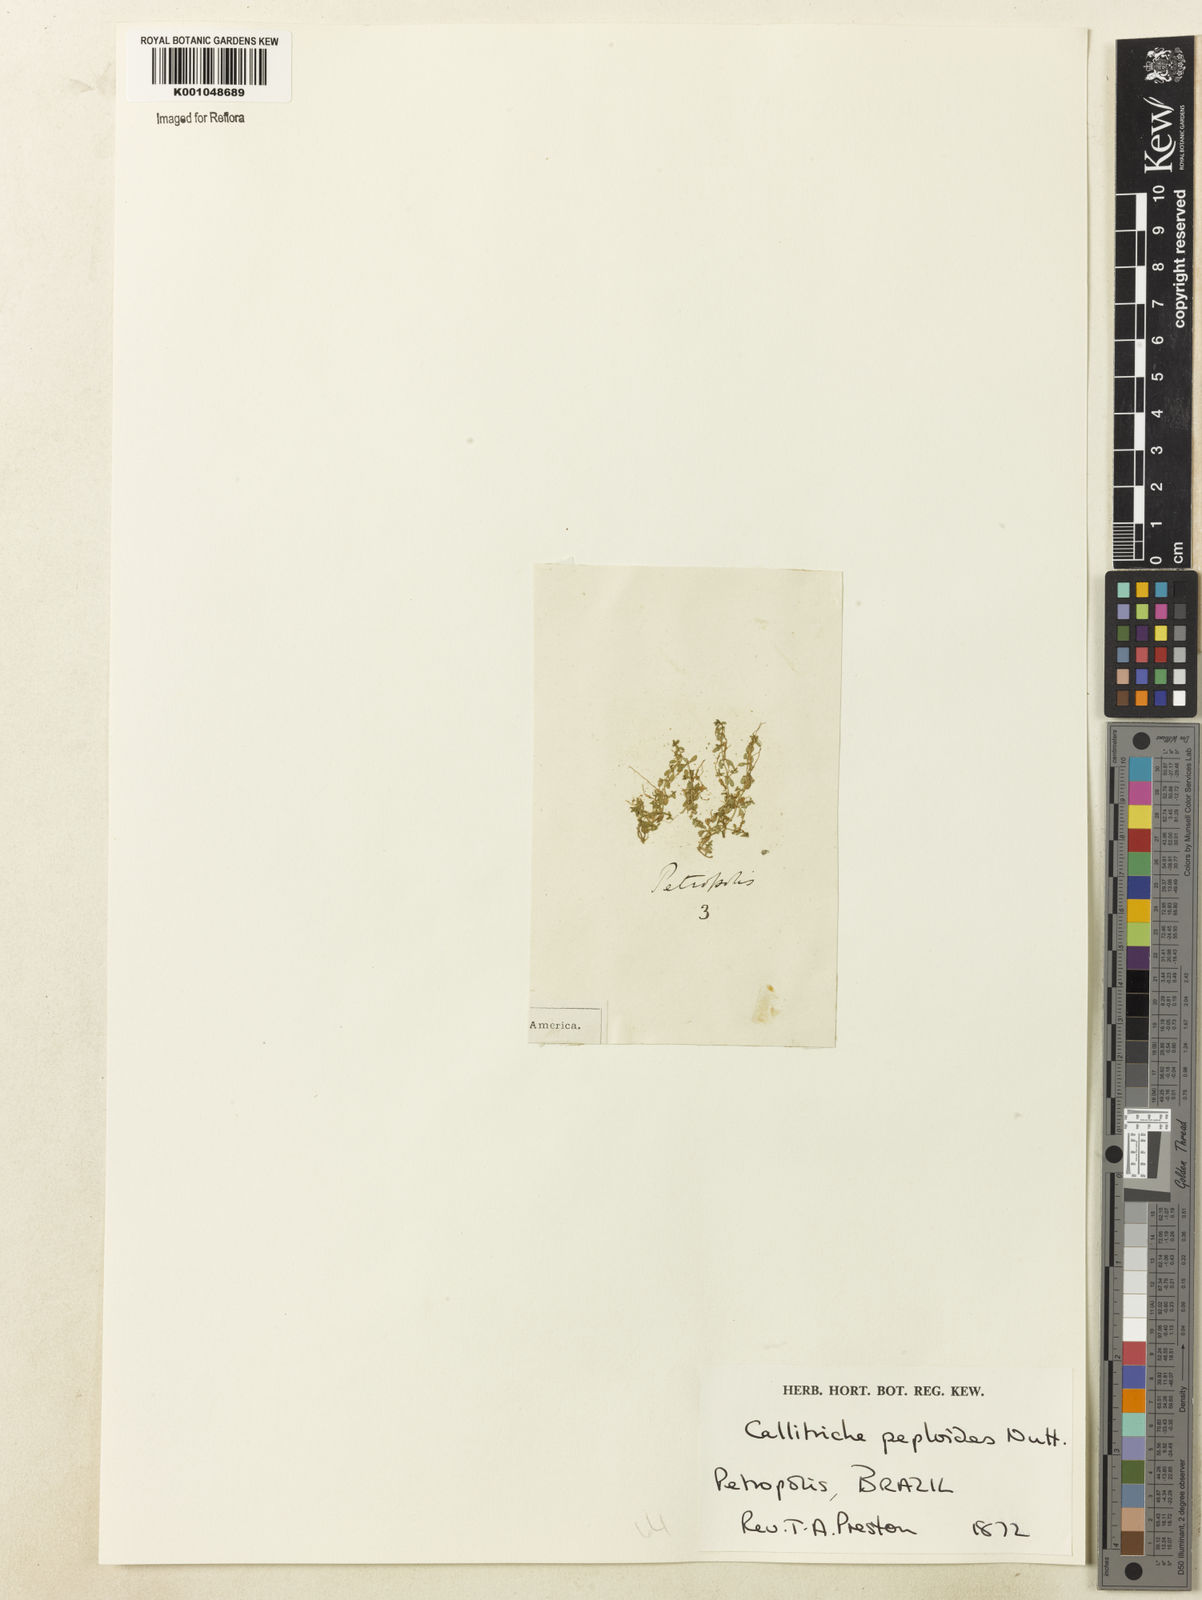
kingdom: Plantae
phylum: Tracheophyta
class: Magnoliopsida
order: Lamiales
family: Plantaginaceae
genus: Callitriche
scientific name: Callitriche peploides
